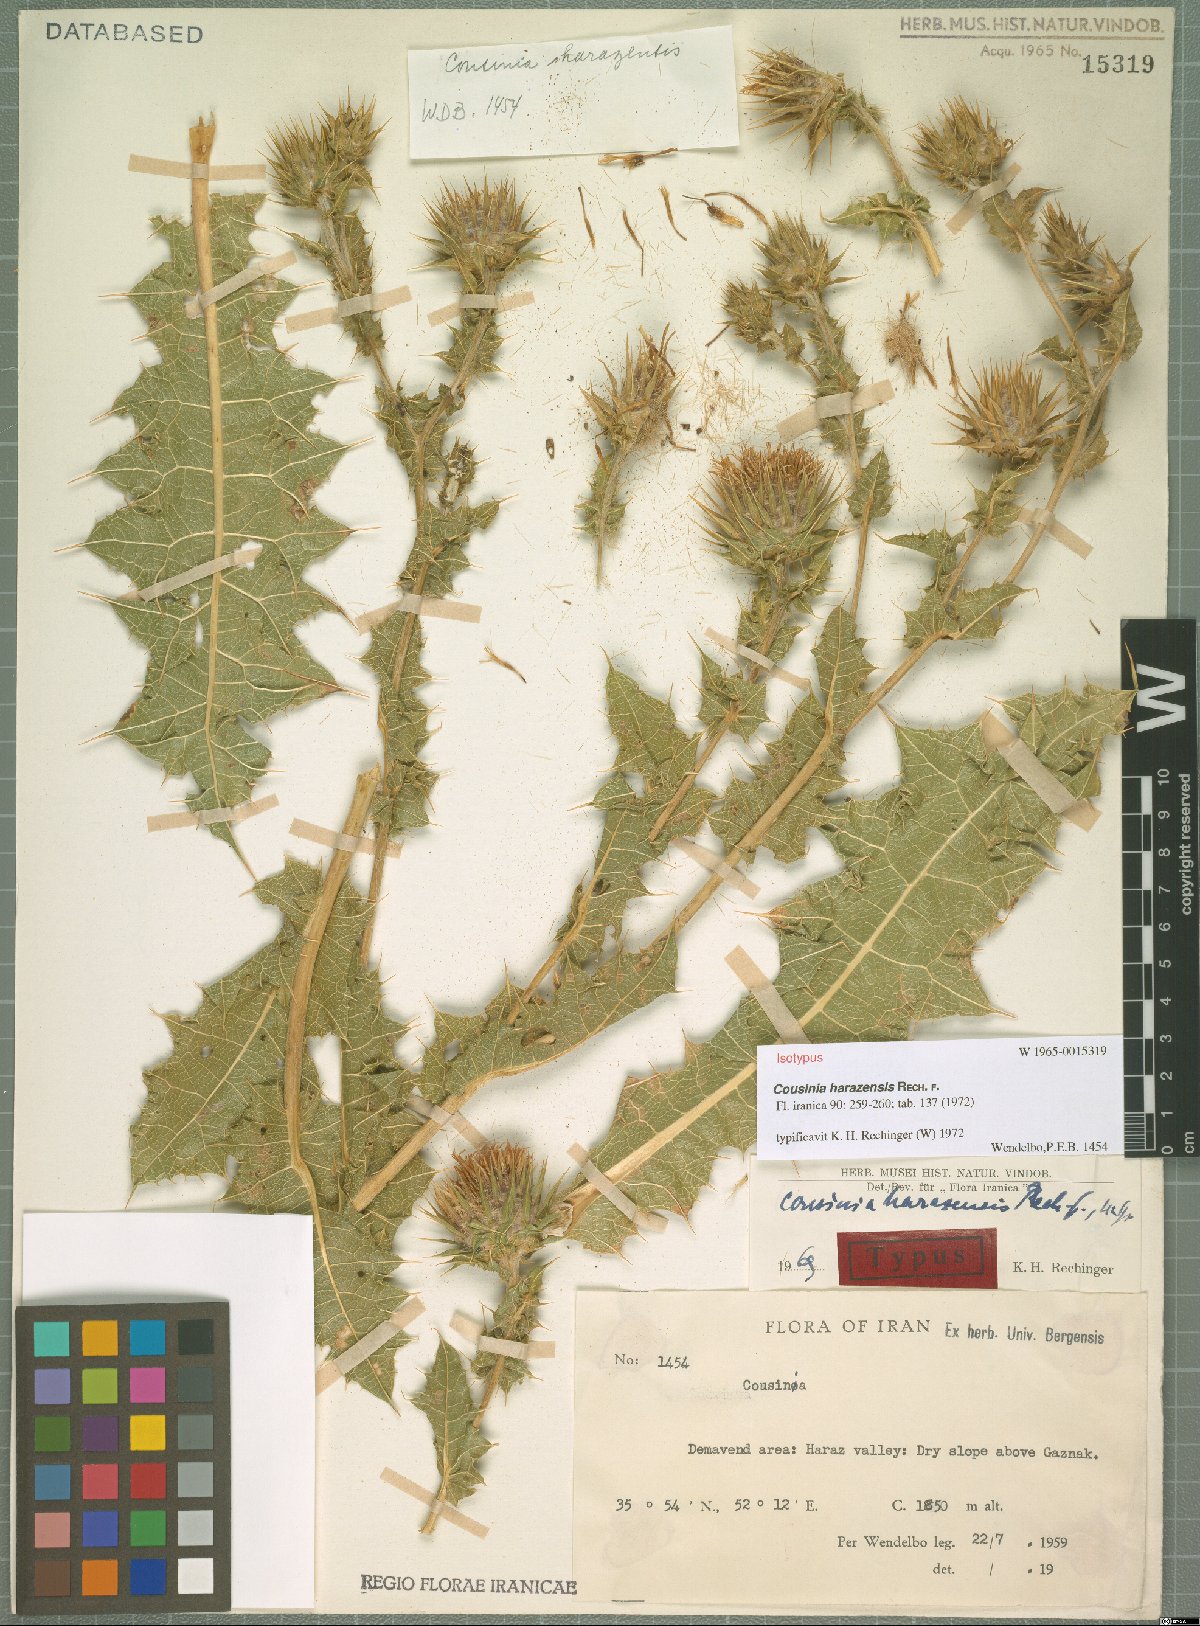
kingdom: Plantae
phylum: Tracheophyta
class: Magnoliopsida
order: Asterales
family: Asteraceae
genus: Cousinia
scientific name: Cousinia harazensis
